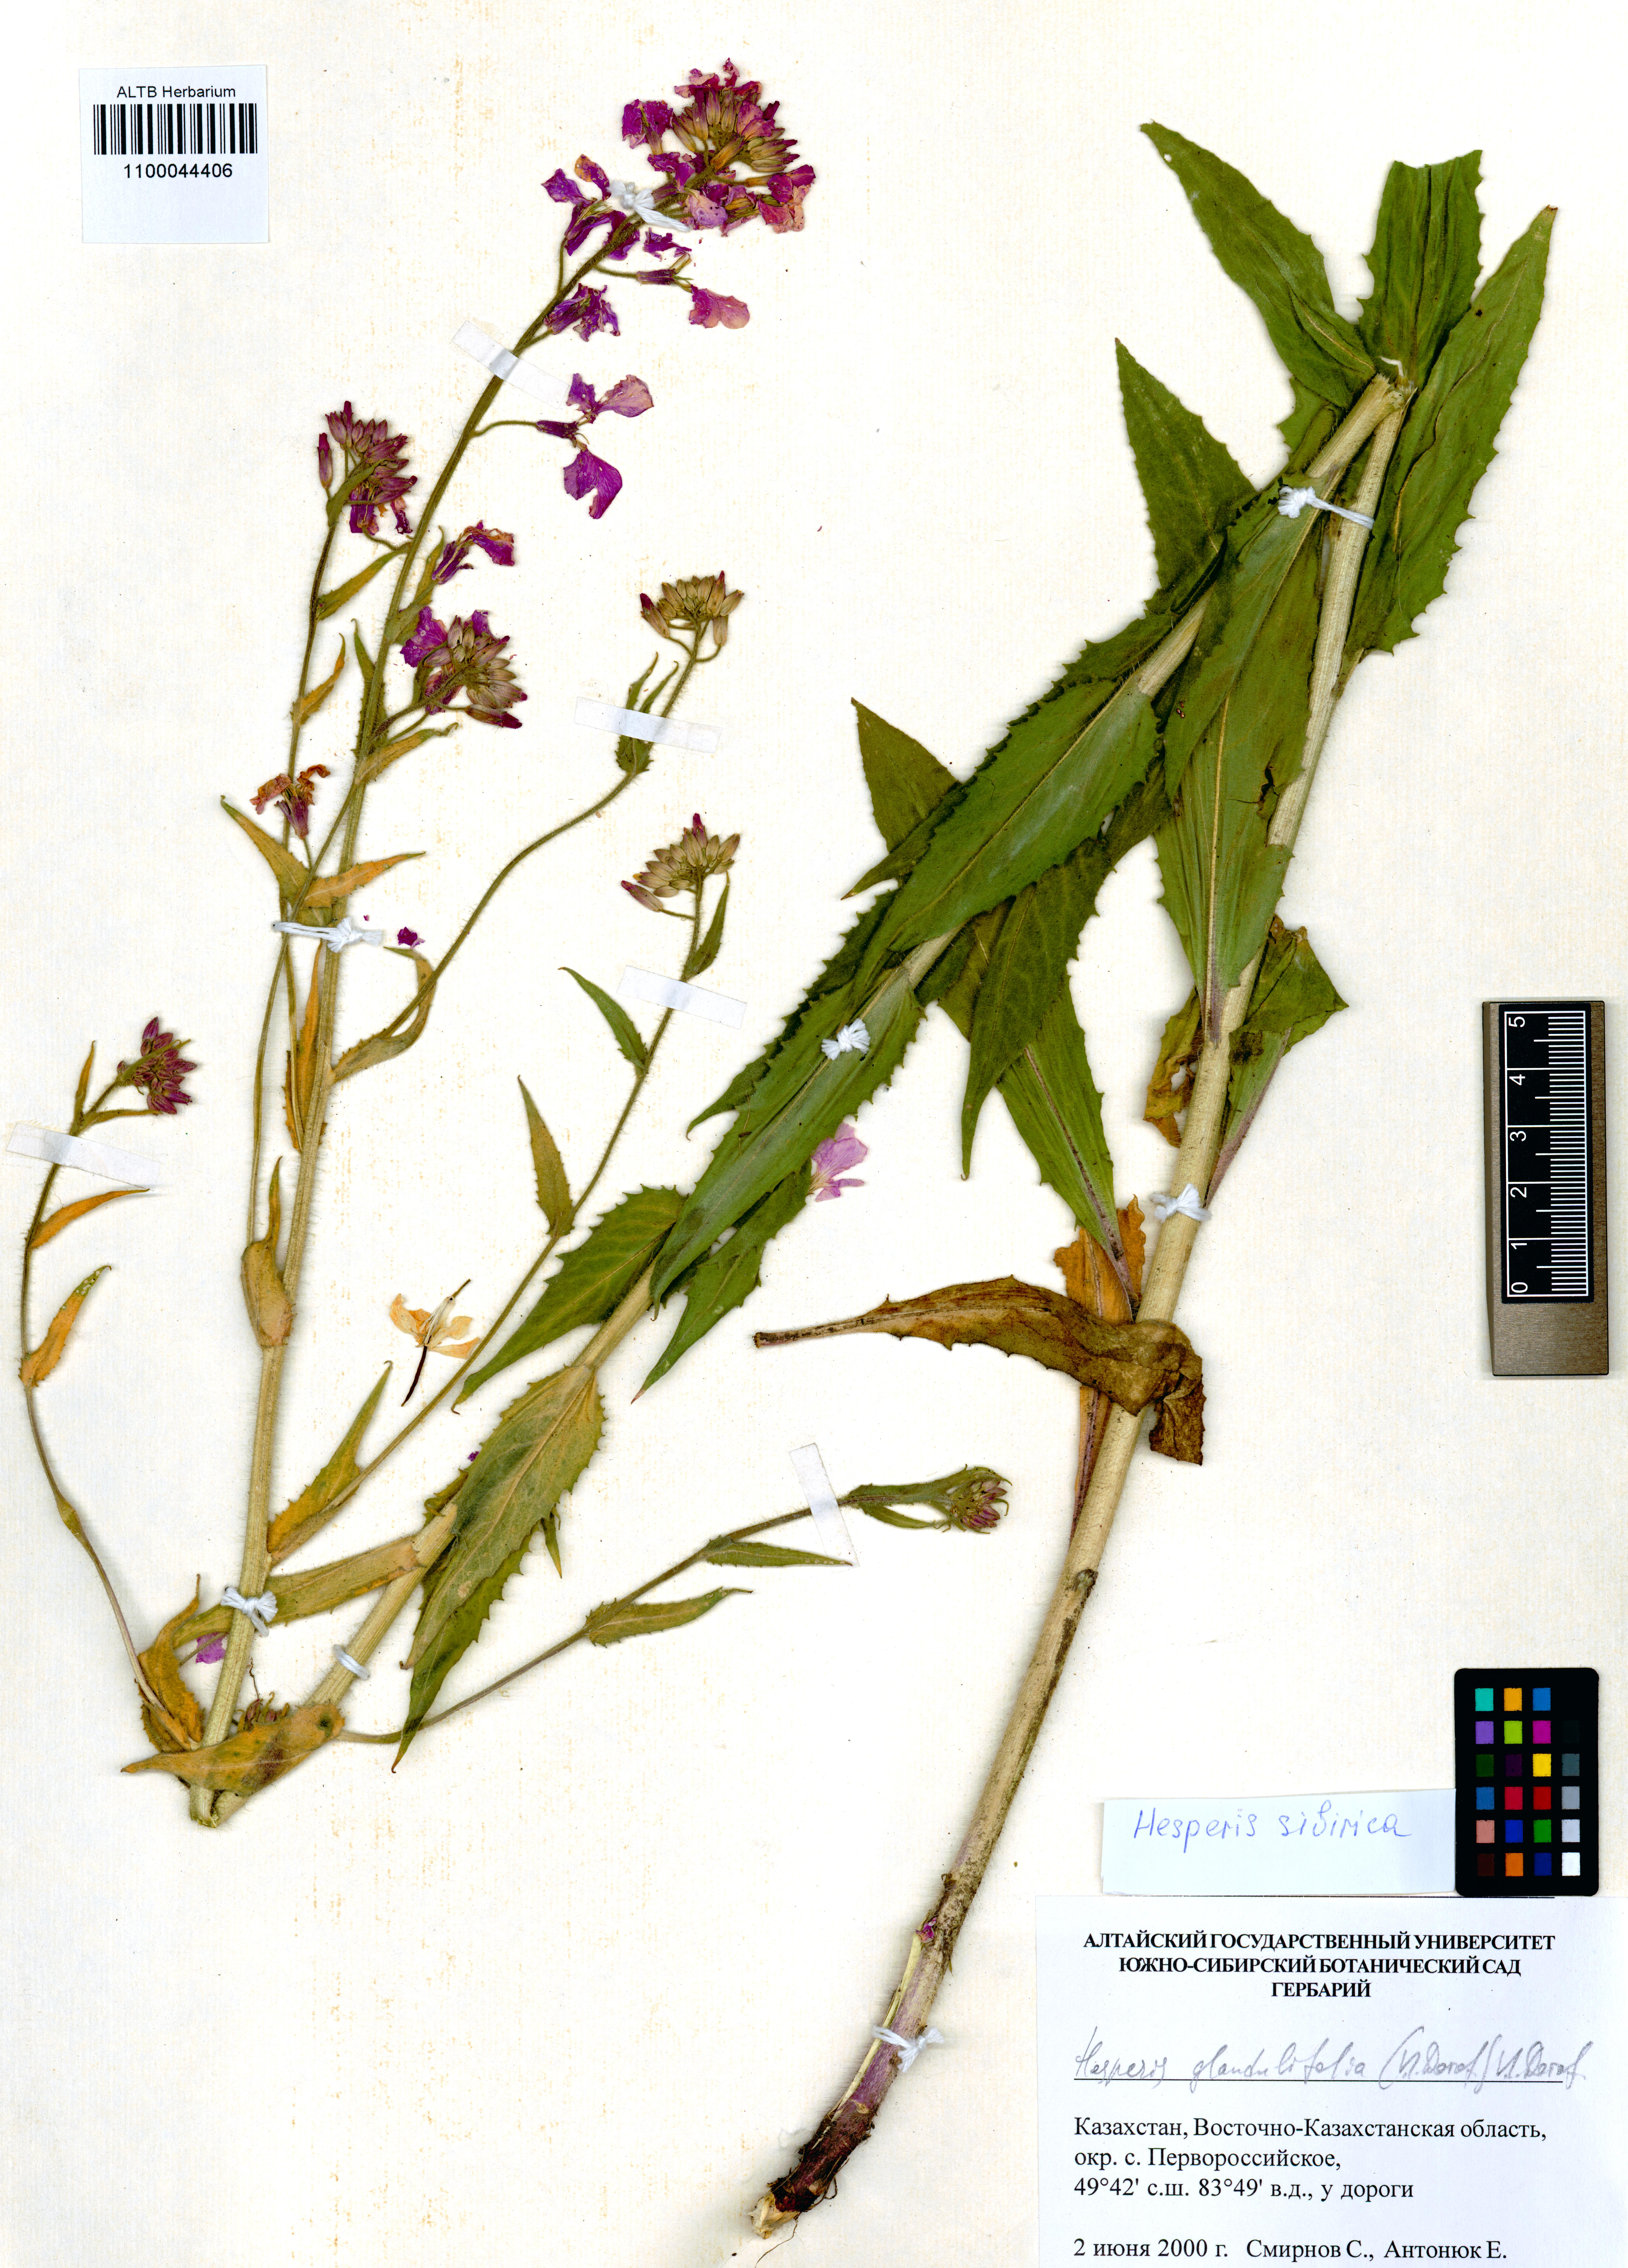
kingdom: Plantae
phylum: Tracheophyta
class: Magnoliopsida
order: Brassicales
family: Brassicaceae
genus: Hesperis
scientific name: Hesperis sibirica
